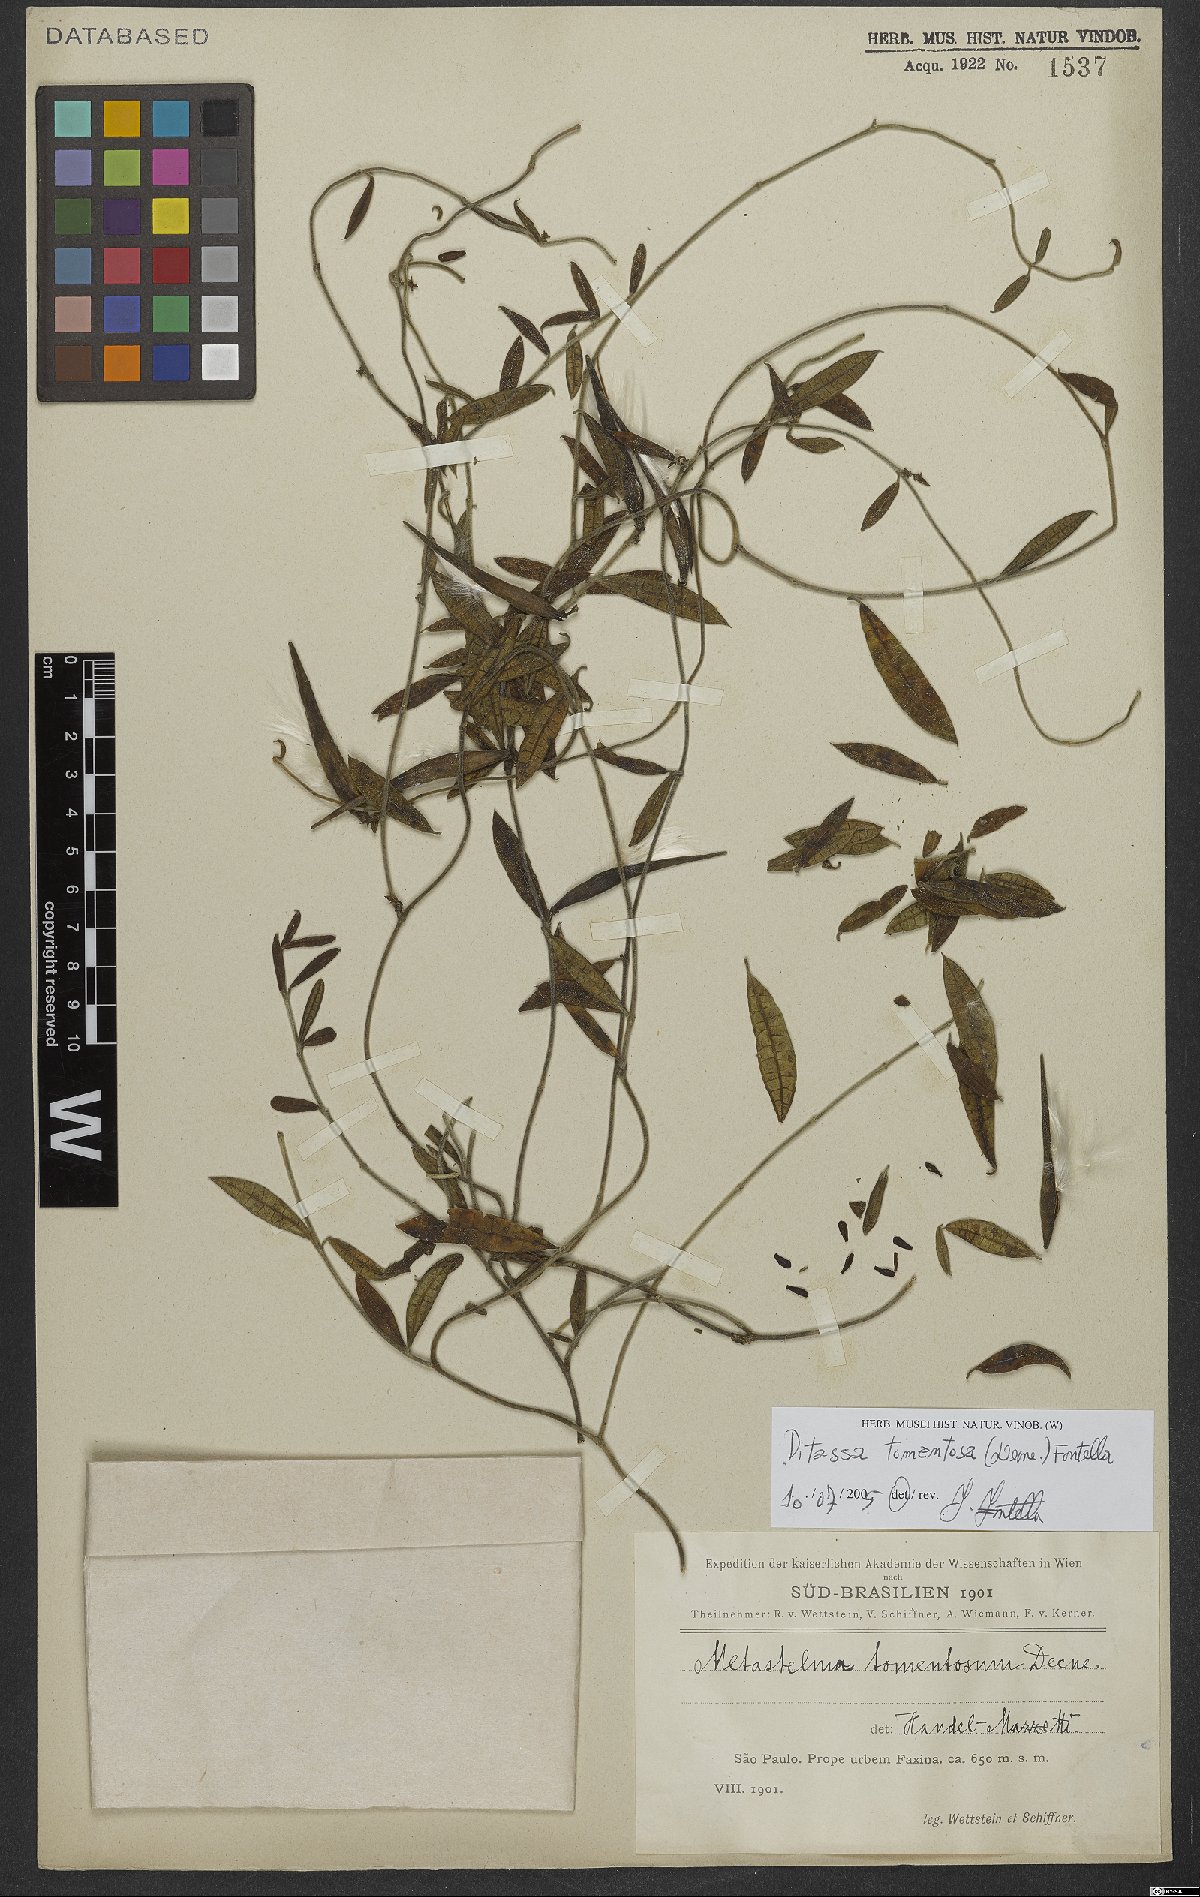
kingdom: Plantae
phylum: Tracheophyta
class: Magnoliopsida
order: Gentianales
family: Apocynaceae
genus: Ditassa
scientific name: Ditassa tomentosa
